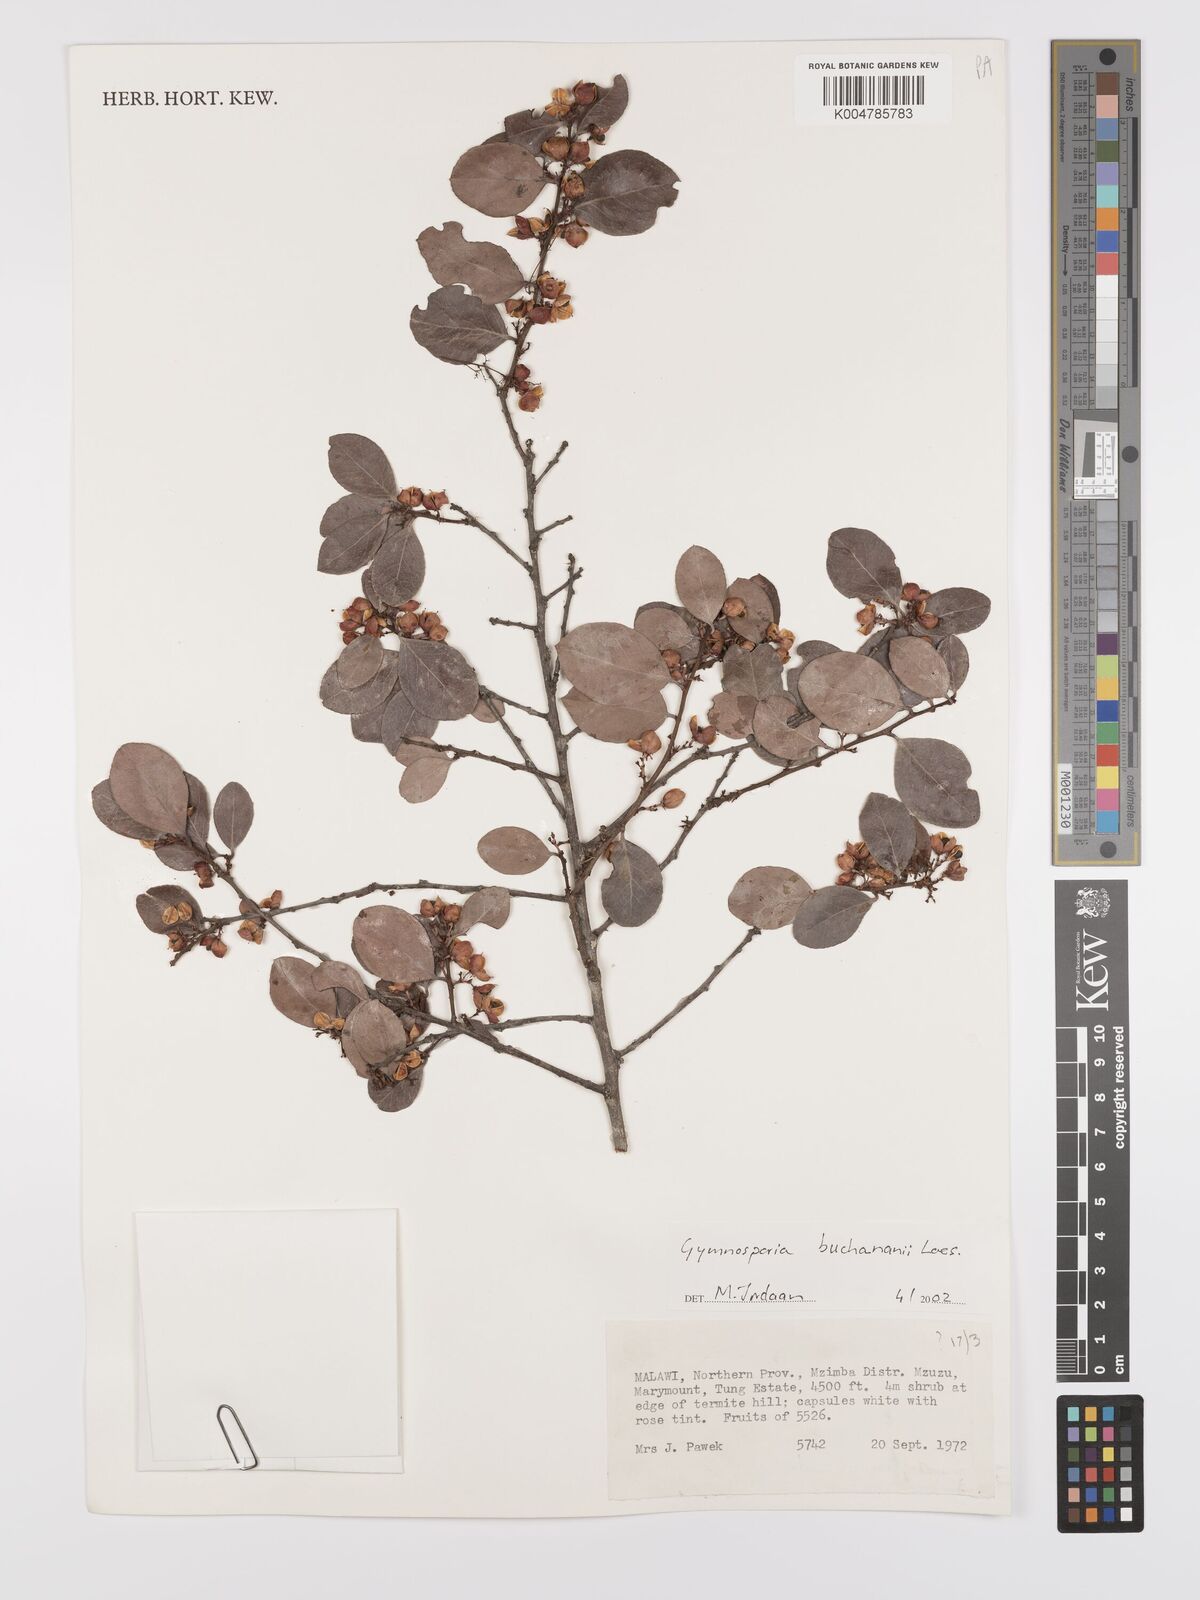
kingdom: Plantae
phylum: Tracheophyta
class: Magnoliopsida
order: Celastrales
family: Celastraceae
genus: Gymnosporia
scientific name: Gymnosporia buchananii
